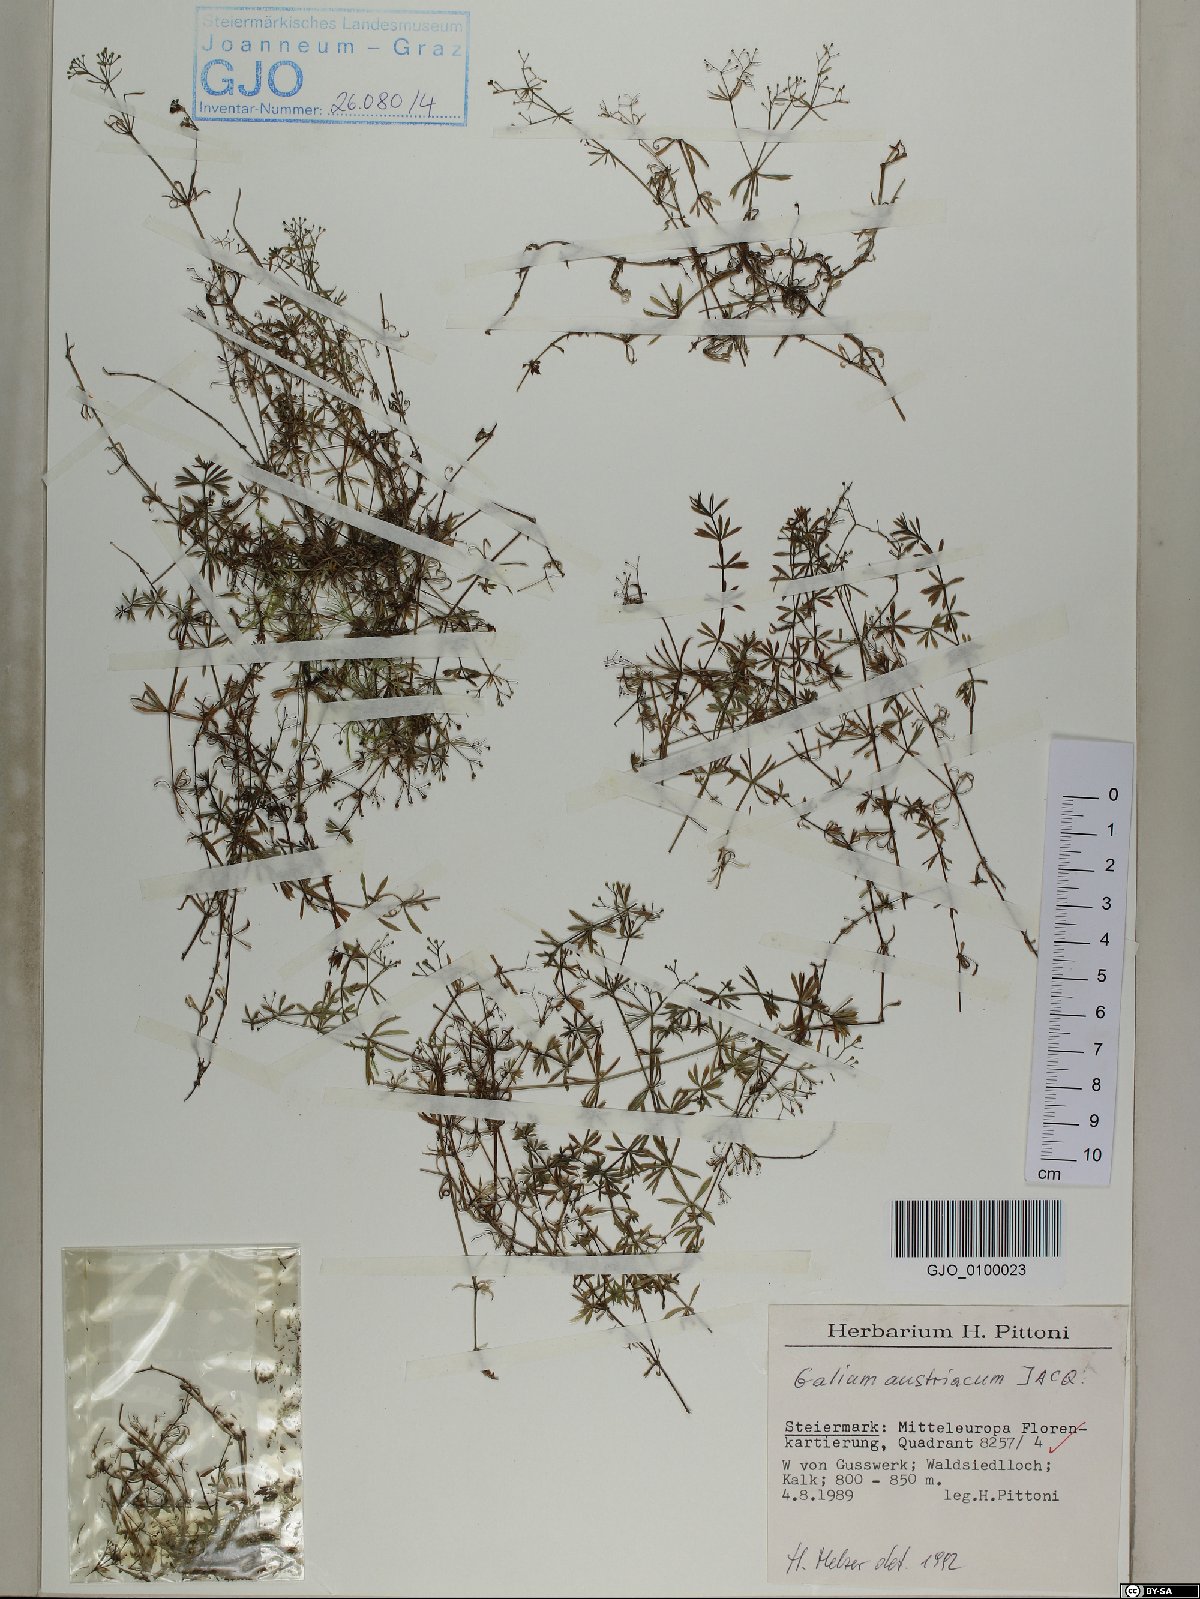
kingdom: Plantae
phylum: Tracheophyta
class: Magnoliopsida
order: Gentianales
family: Rubiaceae
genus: Galium
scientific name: Galium austriacum
